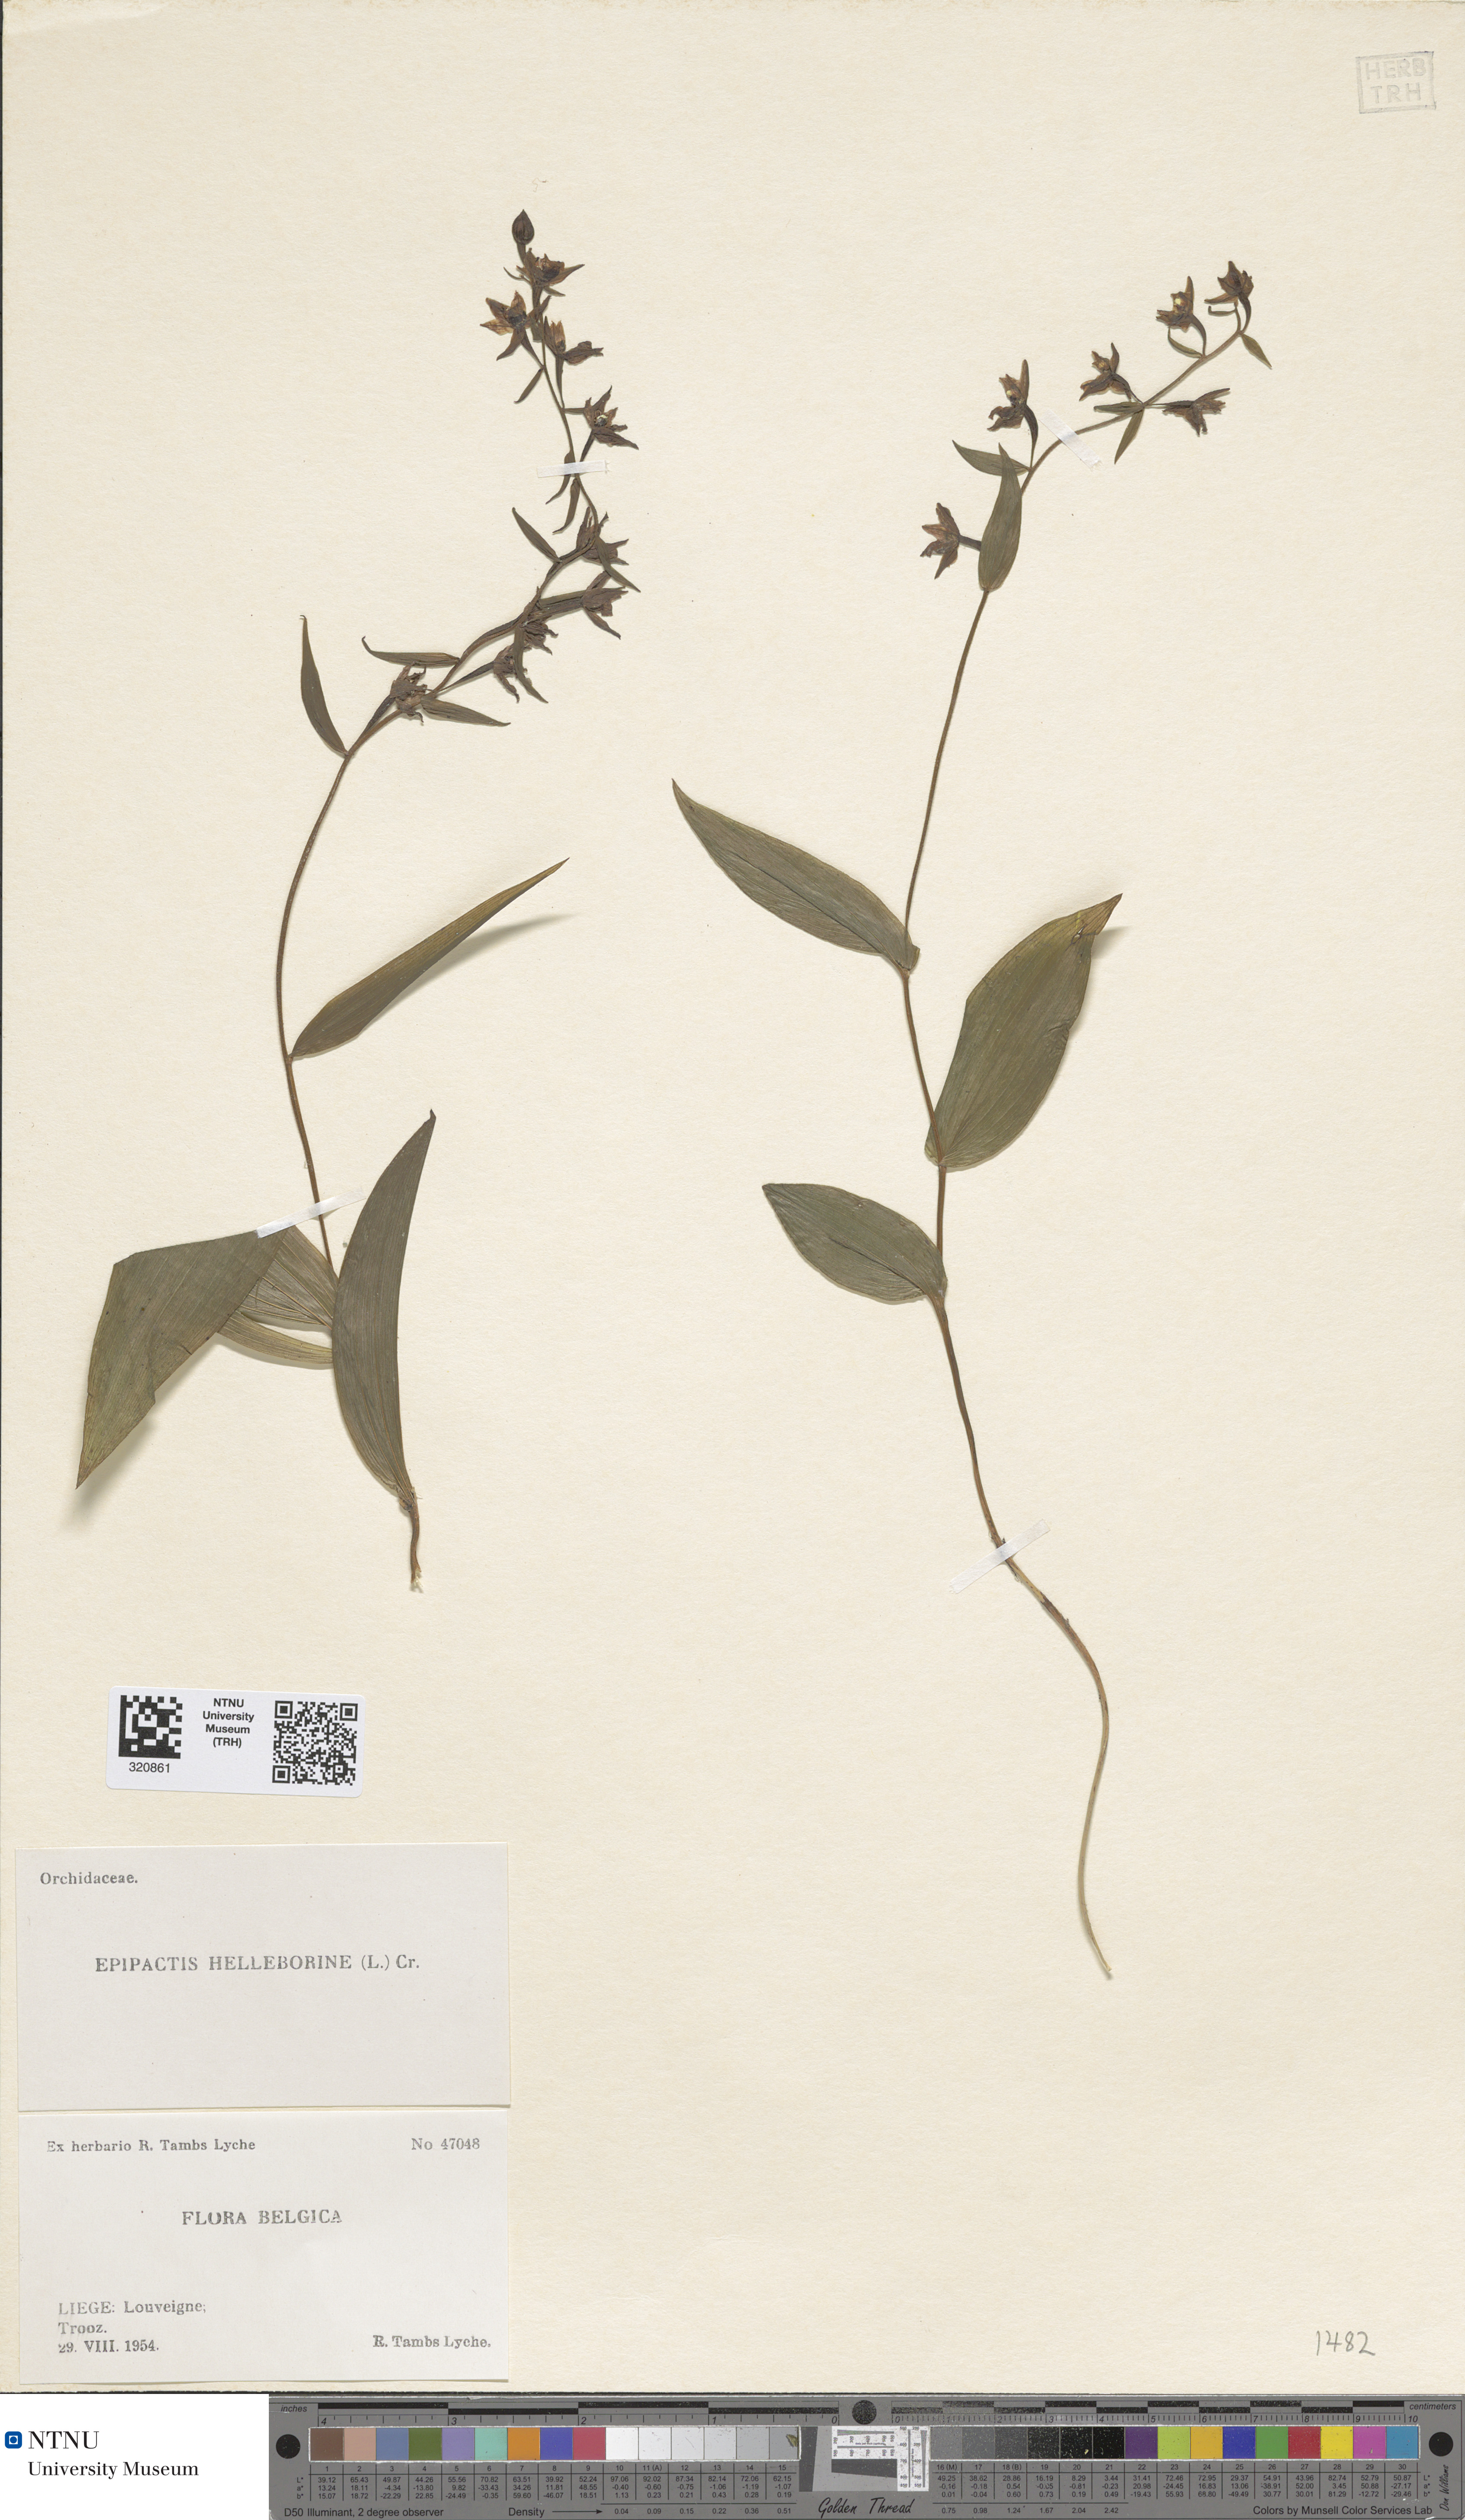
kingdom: Plantae
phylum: Tracheophyta
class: Liliopsida
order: Asparagales
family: Orchidaceae
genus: Epipactis
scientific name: Epipactis helleborine
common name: Broad-leaved helleborine
